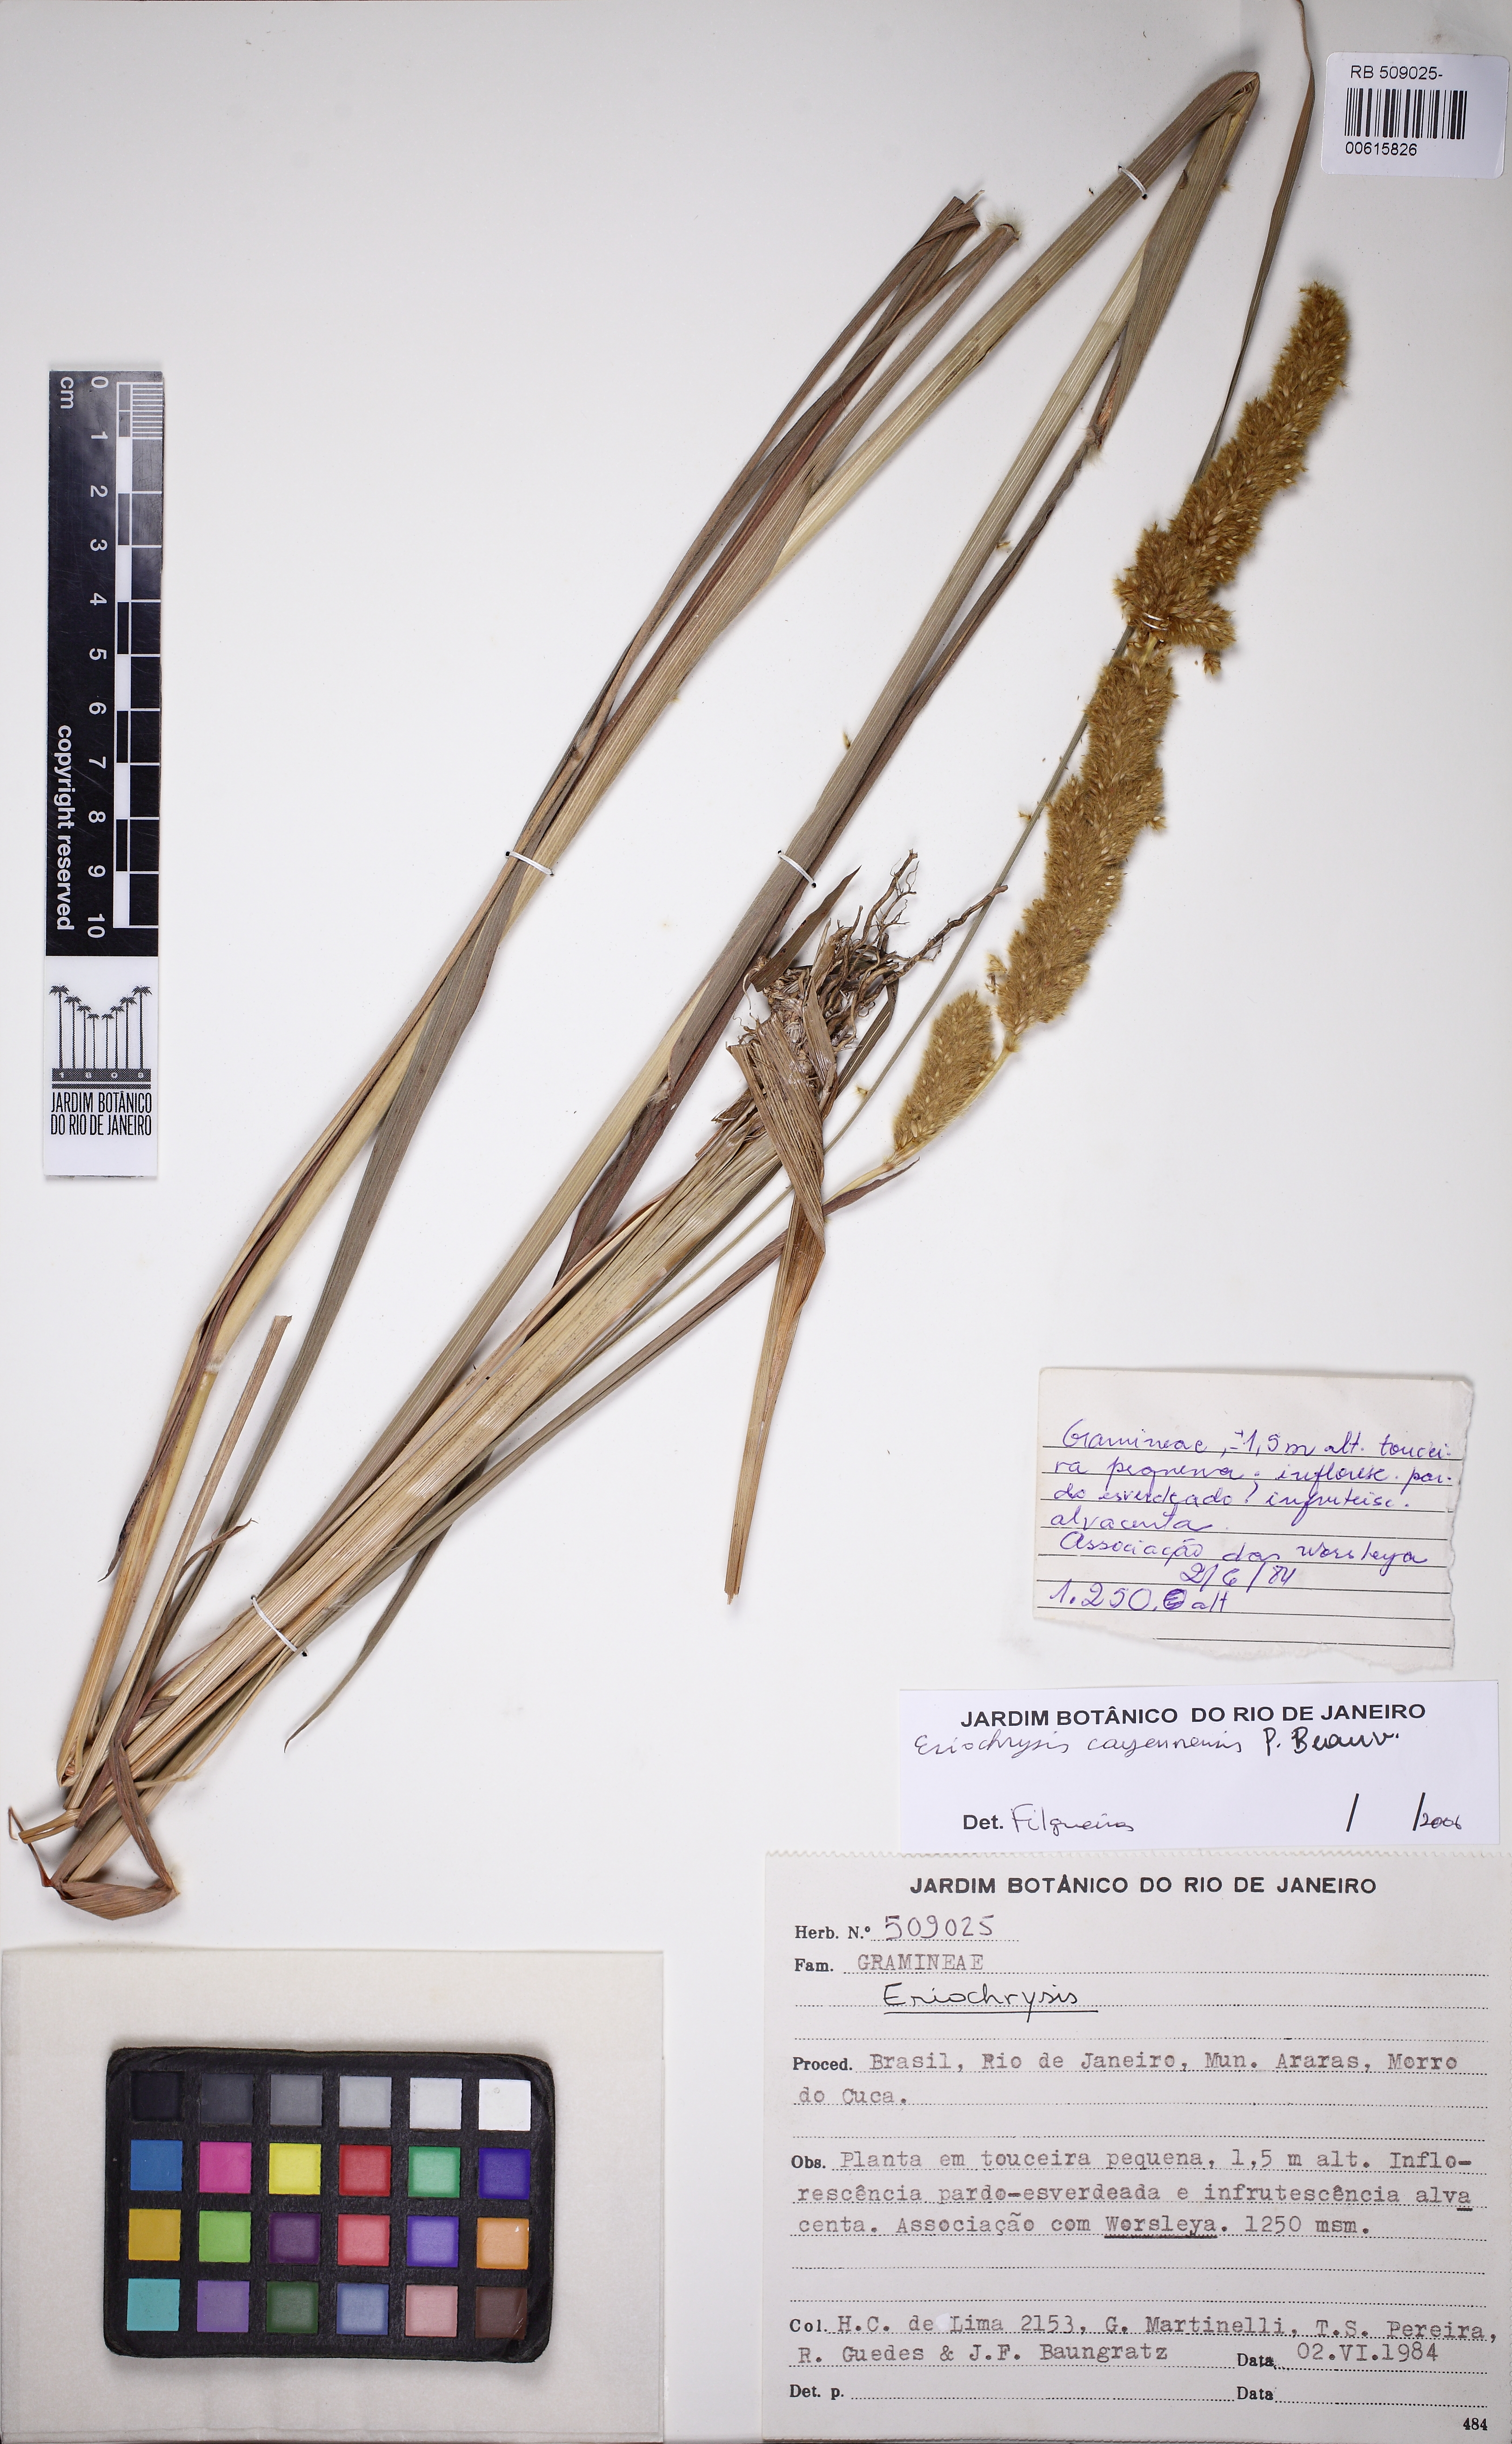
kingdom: Plantae
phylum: Tracheophyta
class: Liliopsida
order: Poales
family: Poaceae
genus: Eriochrysis
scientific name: Eriochrysis cayennensis
